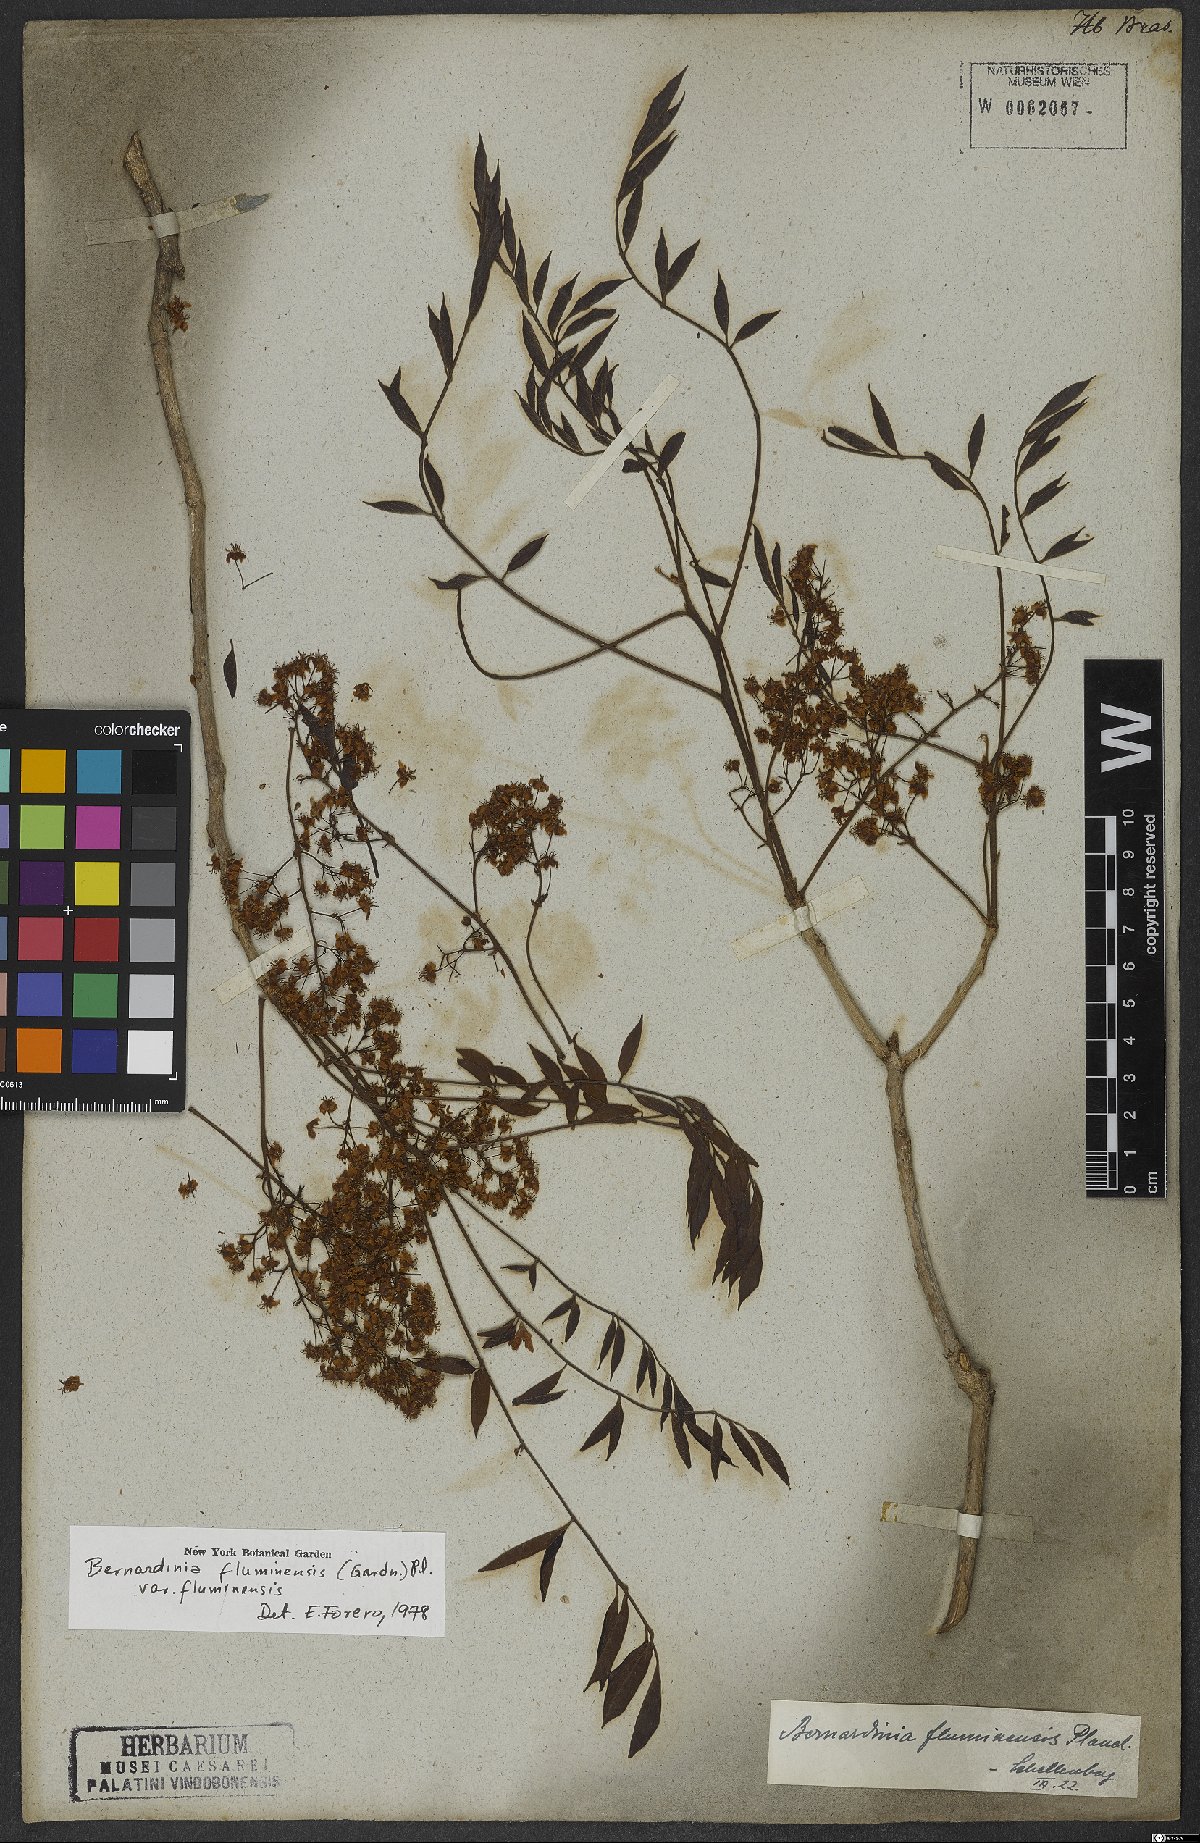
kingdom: Plantae
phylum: Tracheophyta
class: Magnoliopsida
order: Oxalidales
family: Connaraceae
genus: Rourea
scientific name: Rourea fluminensis
